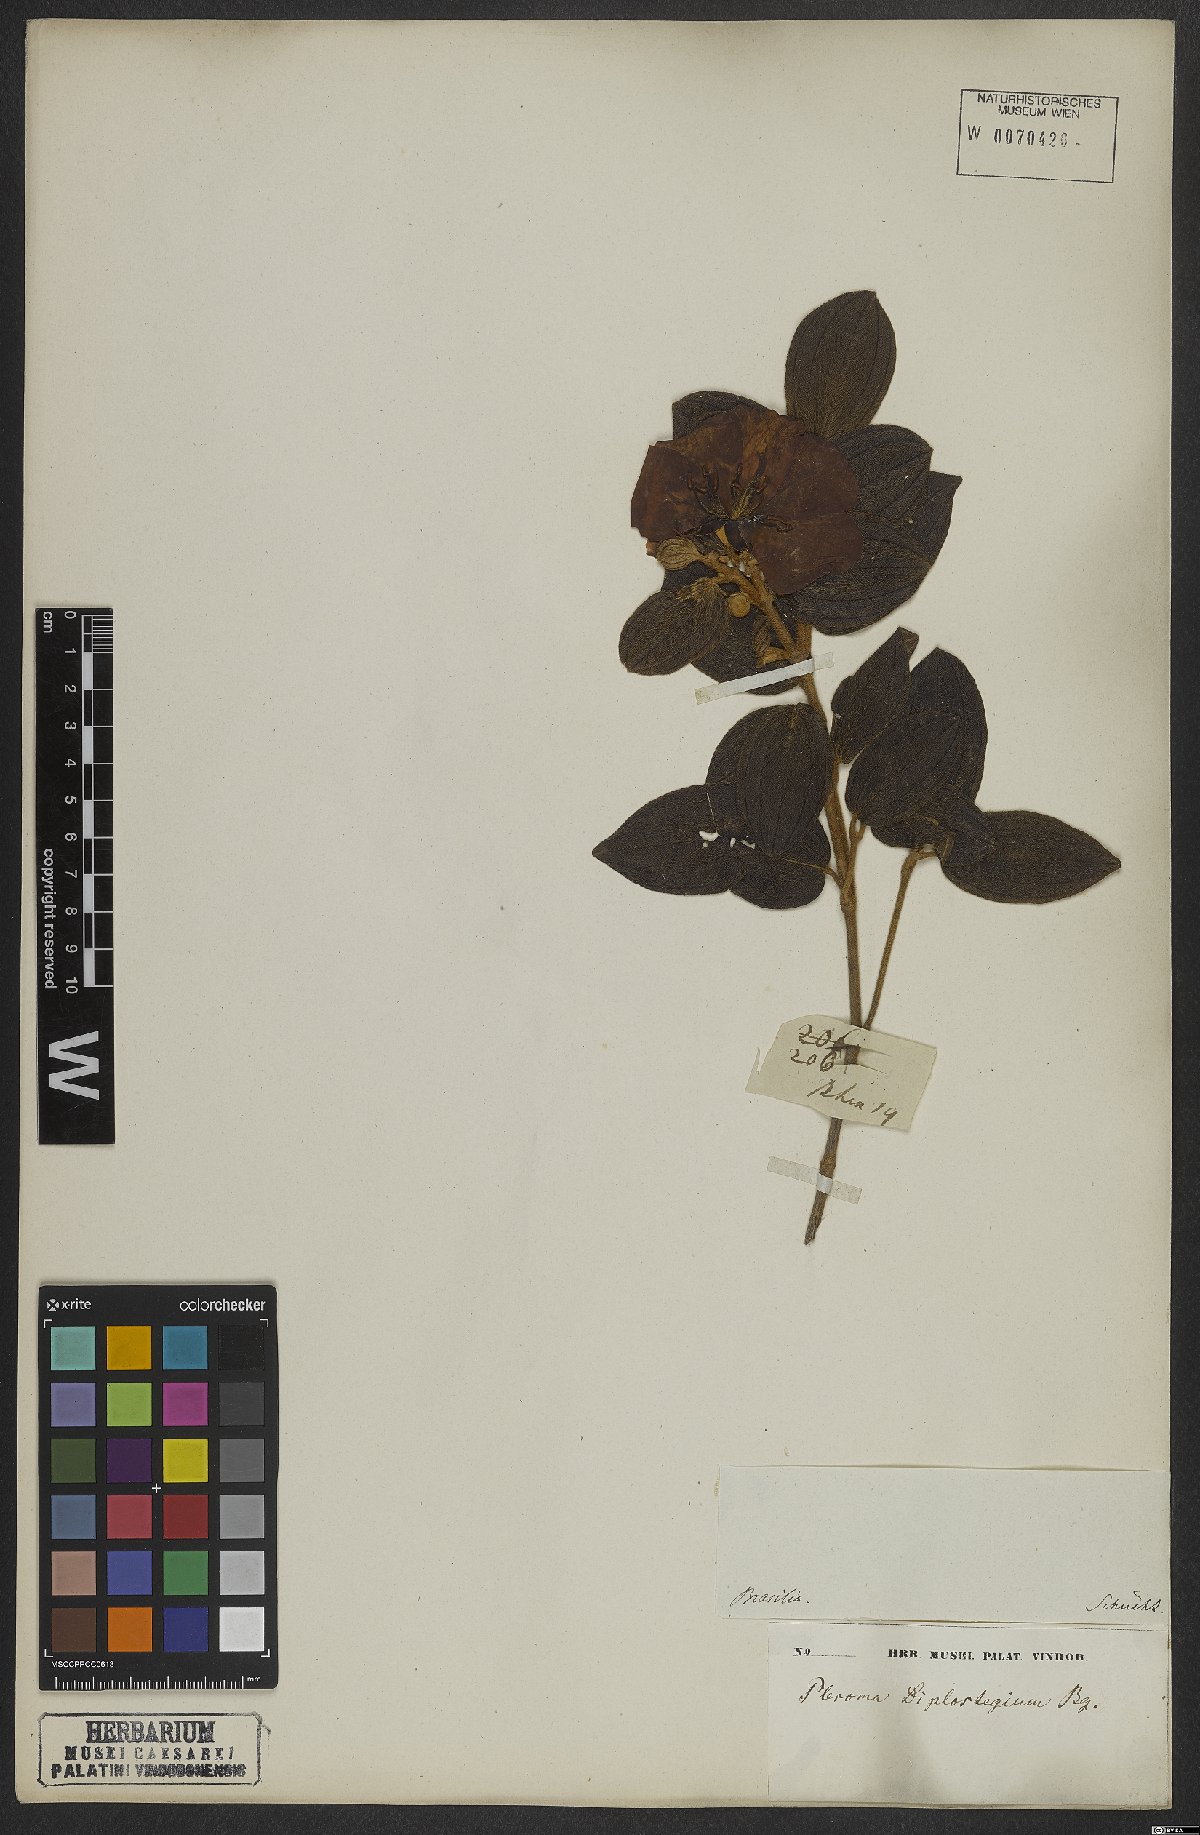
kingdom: Plantae
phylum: Tracheophyta
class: Magnoliopsida
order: Myrtales
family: Melastomataceae
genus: Pleroma
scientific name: Pleroma canescens
